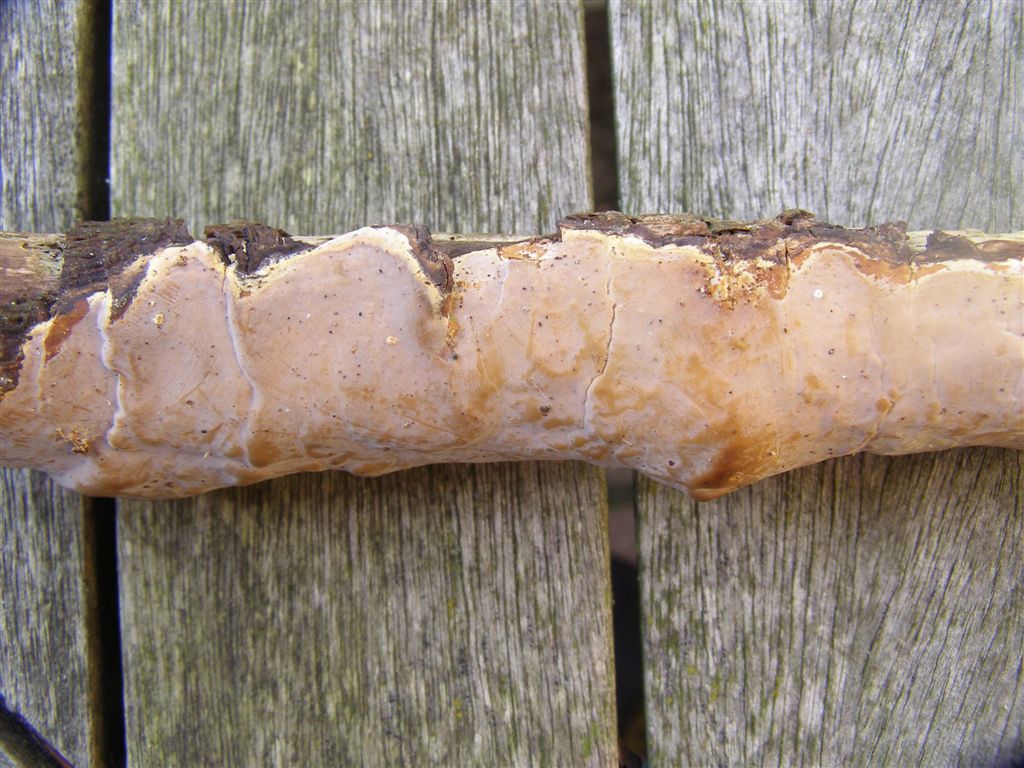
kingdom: Fungi
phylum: Basidiomycota
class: Agaricomycetes
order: Russulales
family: Peniophoraceae
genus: Scytinostroma
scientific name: Scytinostroma hemidichophyticum
